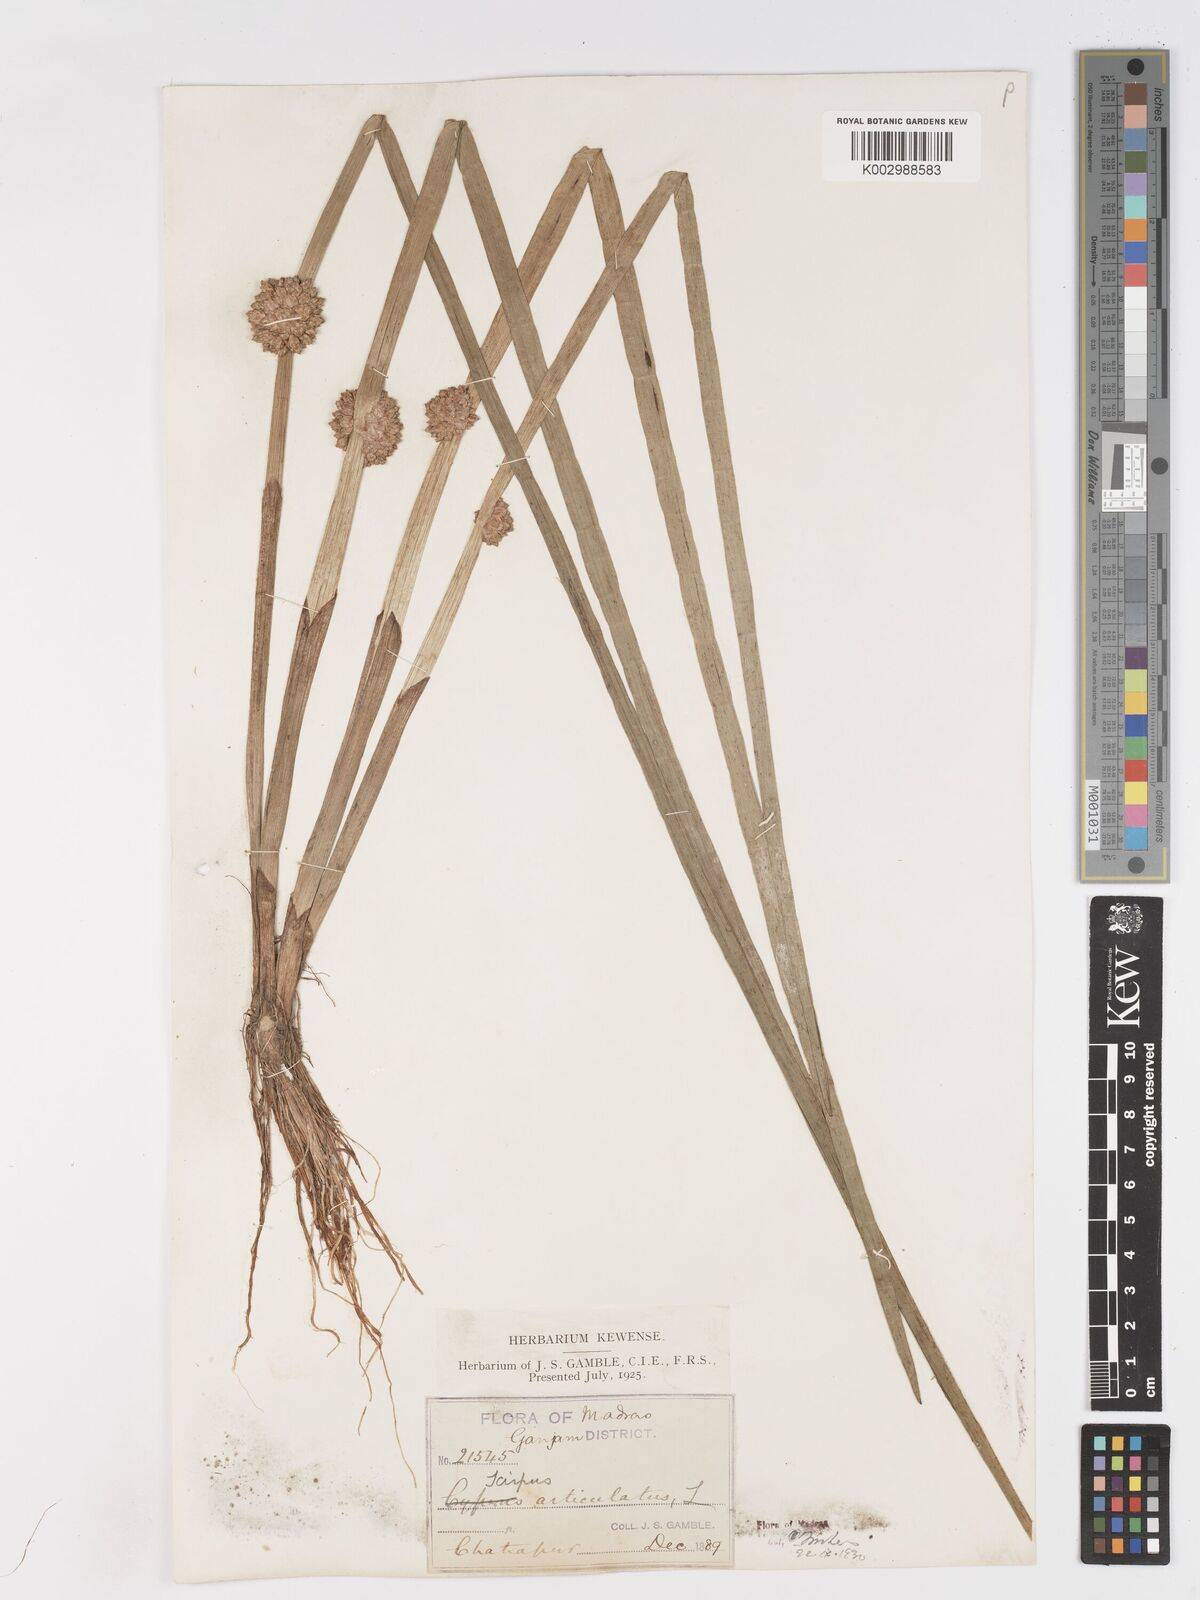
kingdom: Plantae
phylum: Tracheophyta
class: Liliopsida
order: Poales
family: Cyperaceae
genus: Schoenoplectiella
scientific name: Schoenoplectiella articulata
